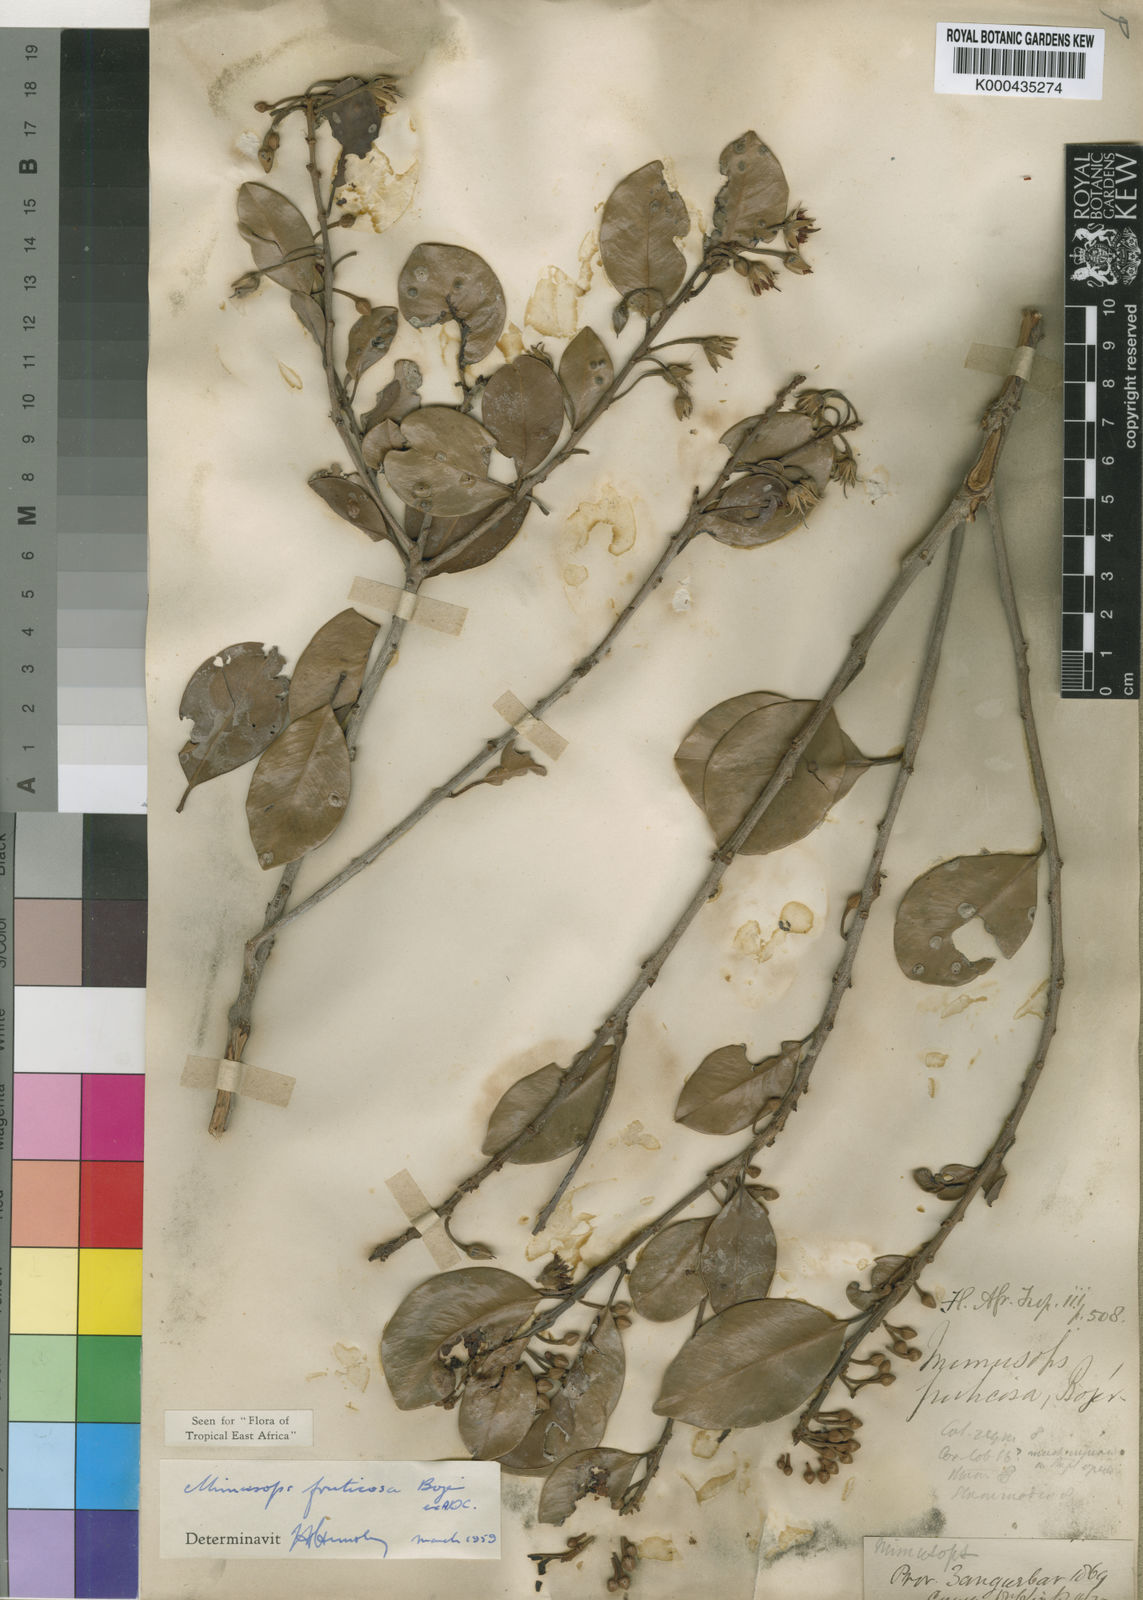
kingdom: Plantae
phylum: Tracheophyta
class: Magnoliopsida
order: Ericales
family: Sapotaceae
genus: Mimusops
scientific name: Mimusops
